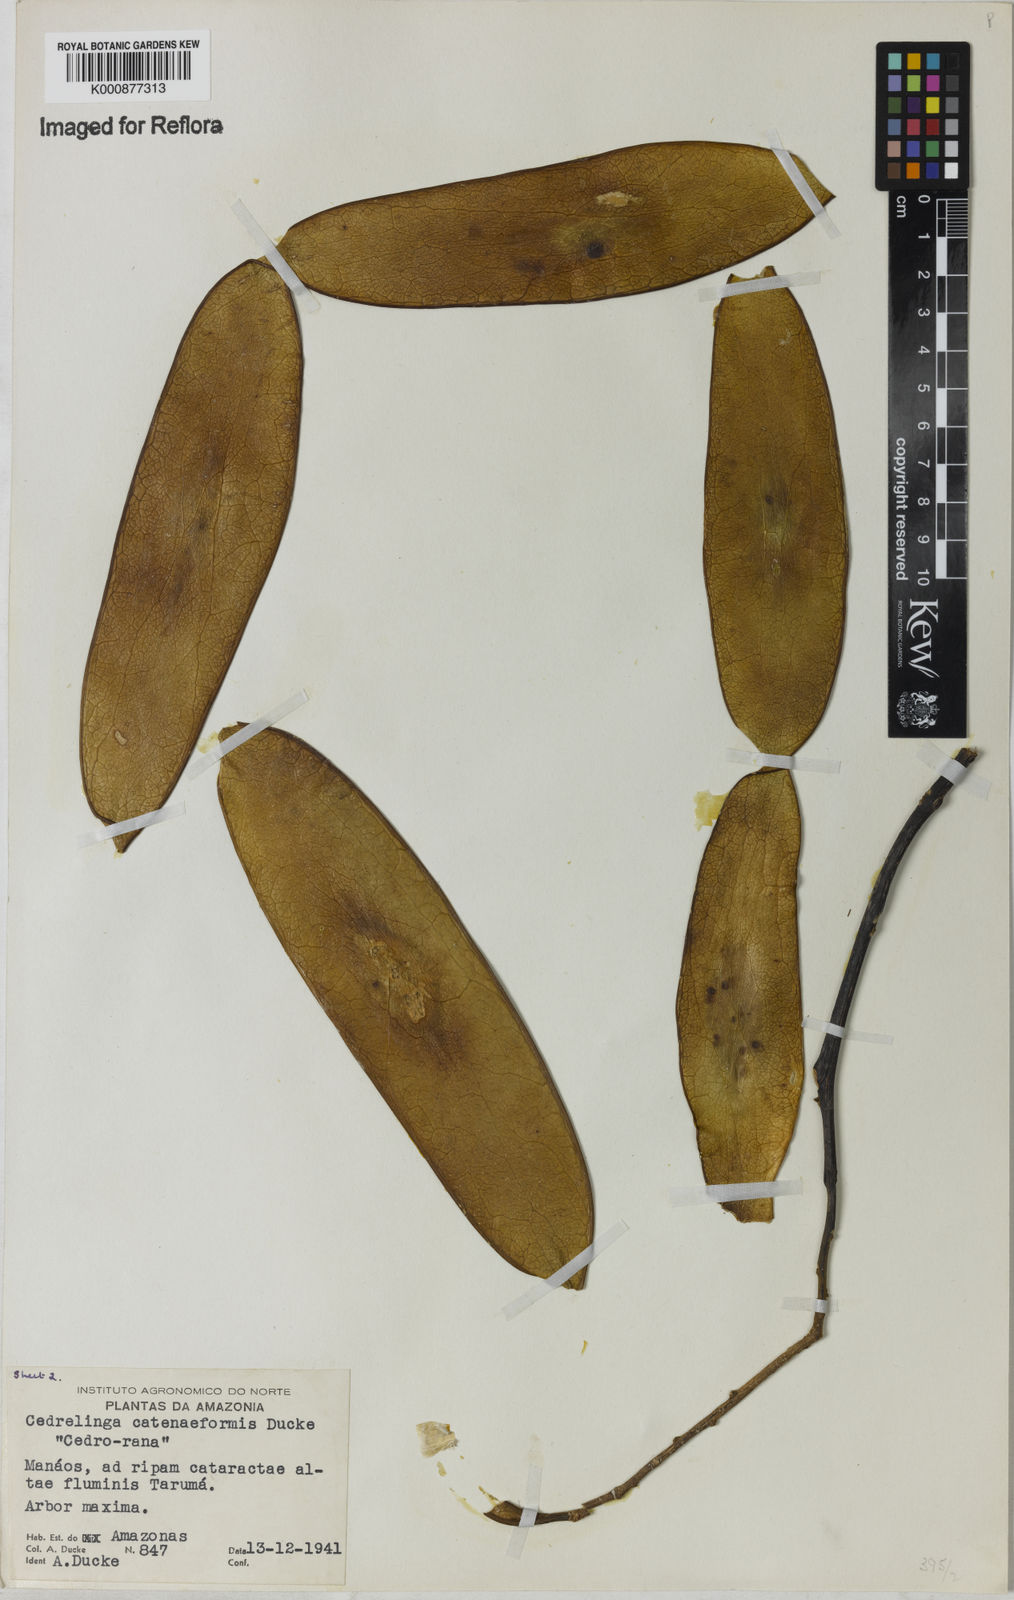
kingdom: Plantae
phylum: Tracheophyta
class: Magnoliopsida
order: Fabales
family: Fabaceae
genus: Cedrelinga
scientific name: Cedrelinga cateniformis
